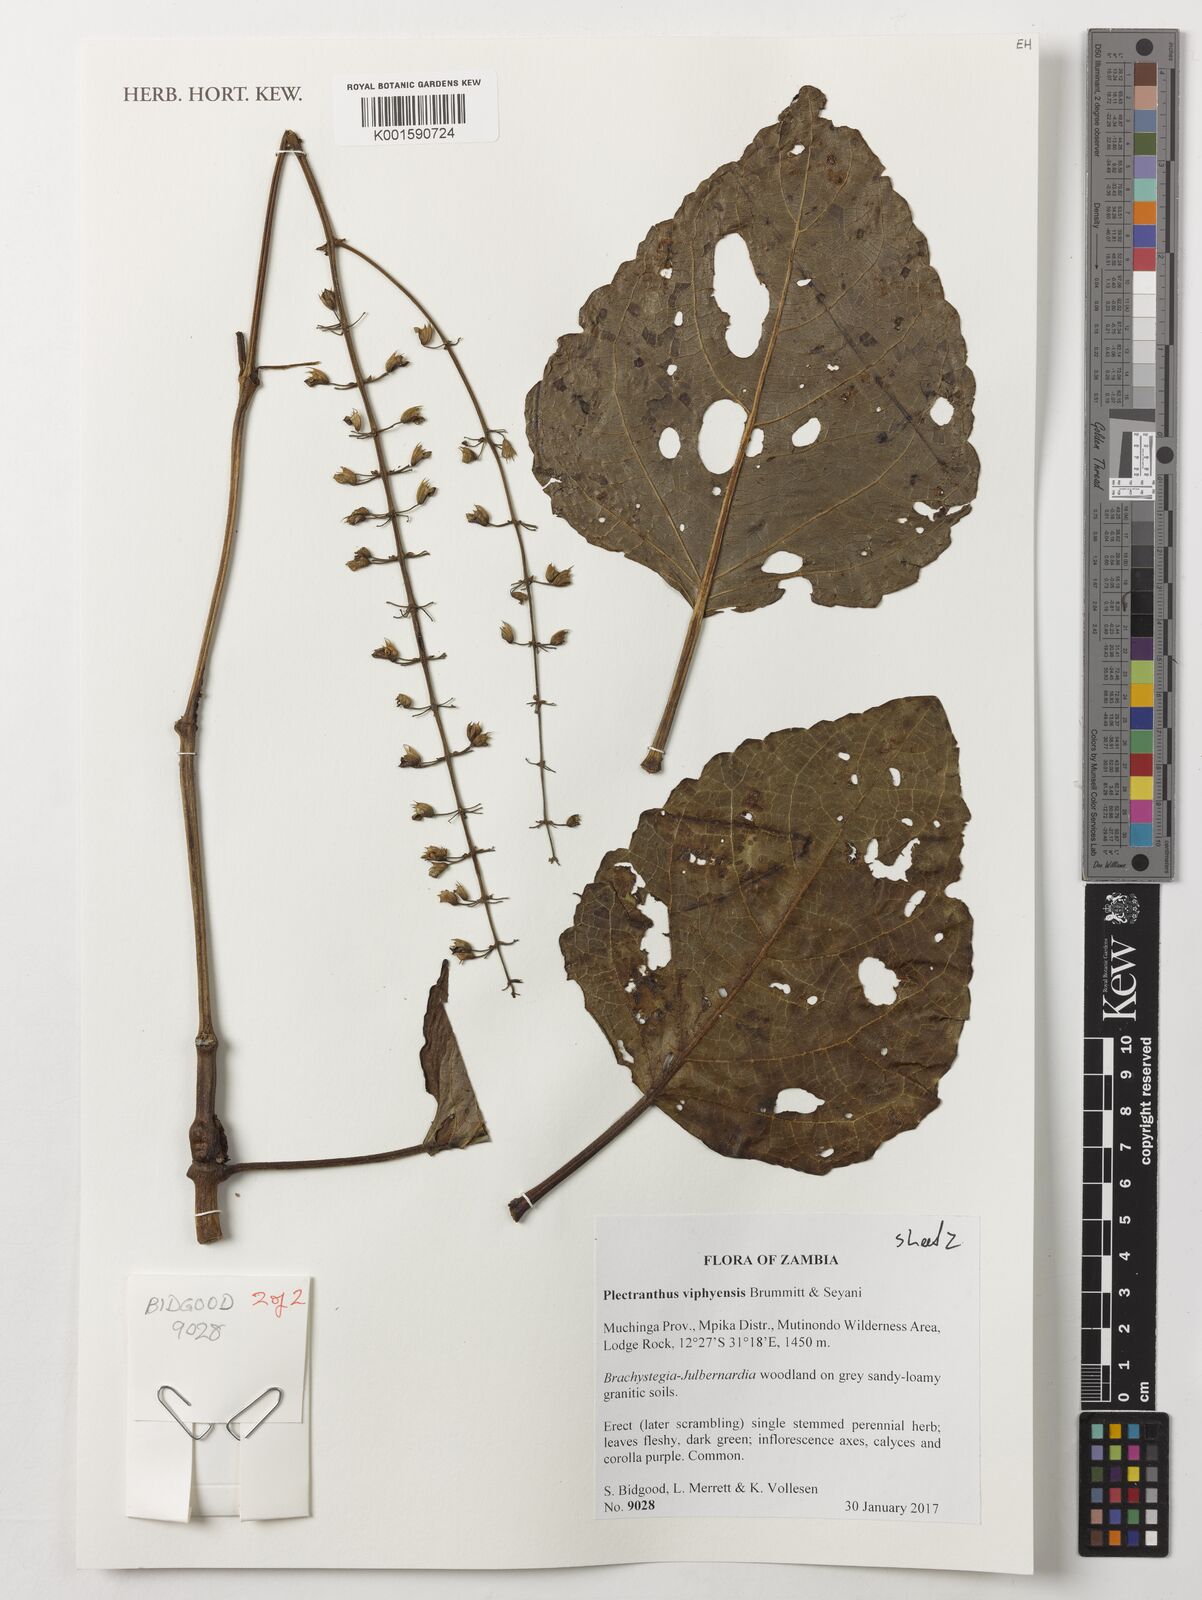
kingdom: Plantae
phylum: Tracheophyta
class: Magnoliopsida
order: Lamiales
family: Lamiaceae
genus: Equilabium
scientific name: Equilabium viphyense
